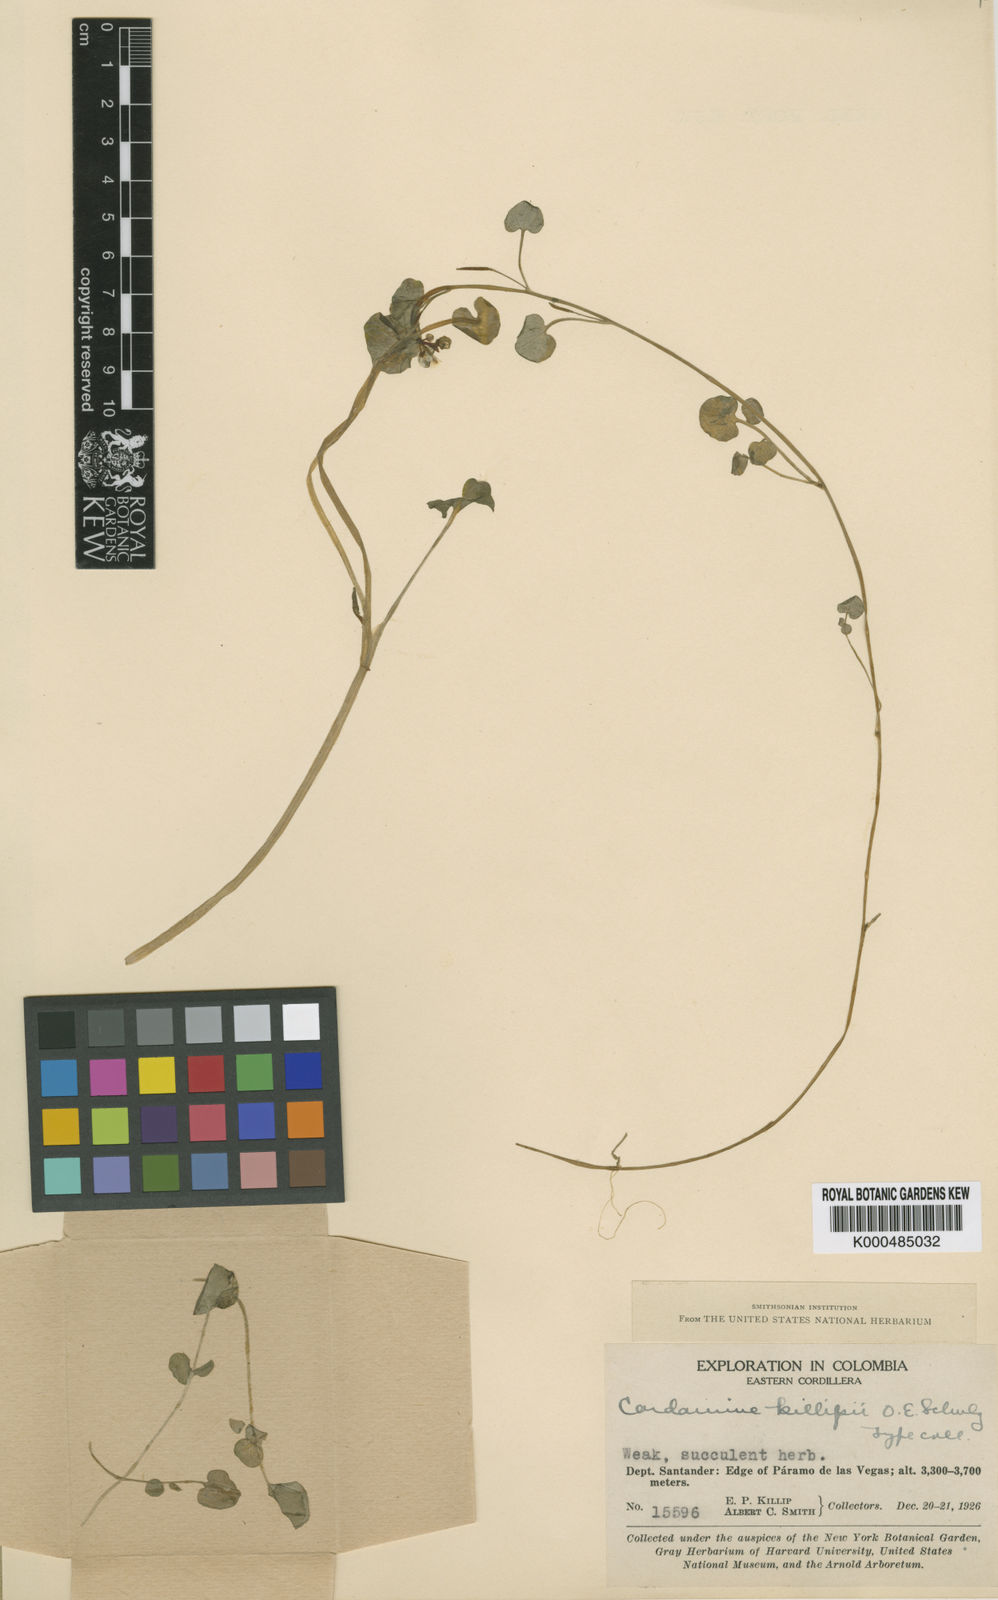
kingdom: Plantae
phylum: Tracheophyta
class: Magnoliopsida
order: Brassicales
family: Brassicaceae
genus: Cardamine
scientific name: Cardamine bonariensis
